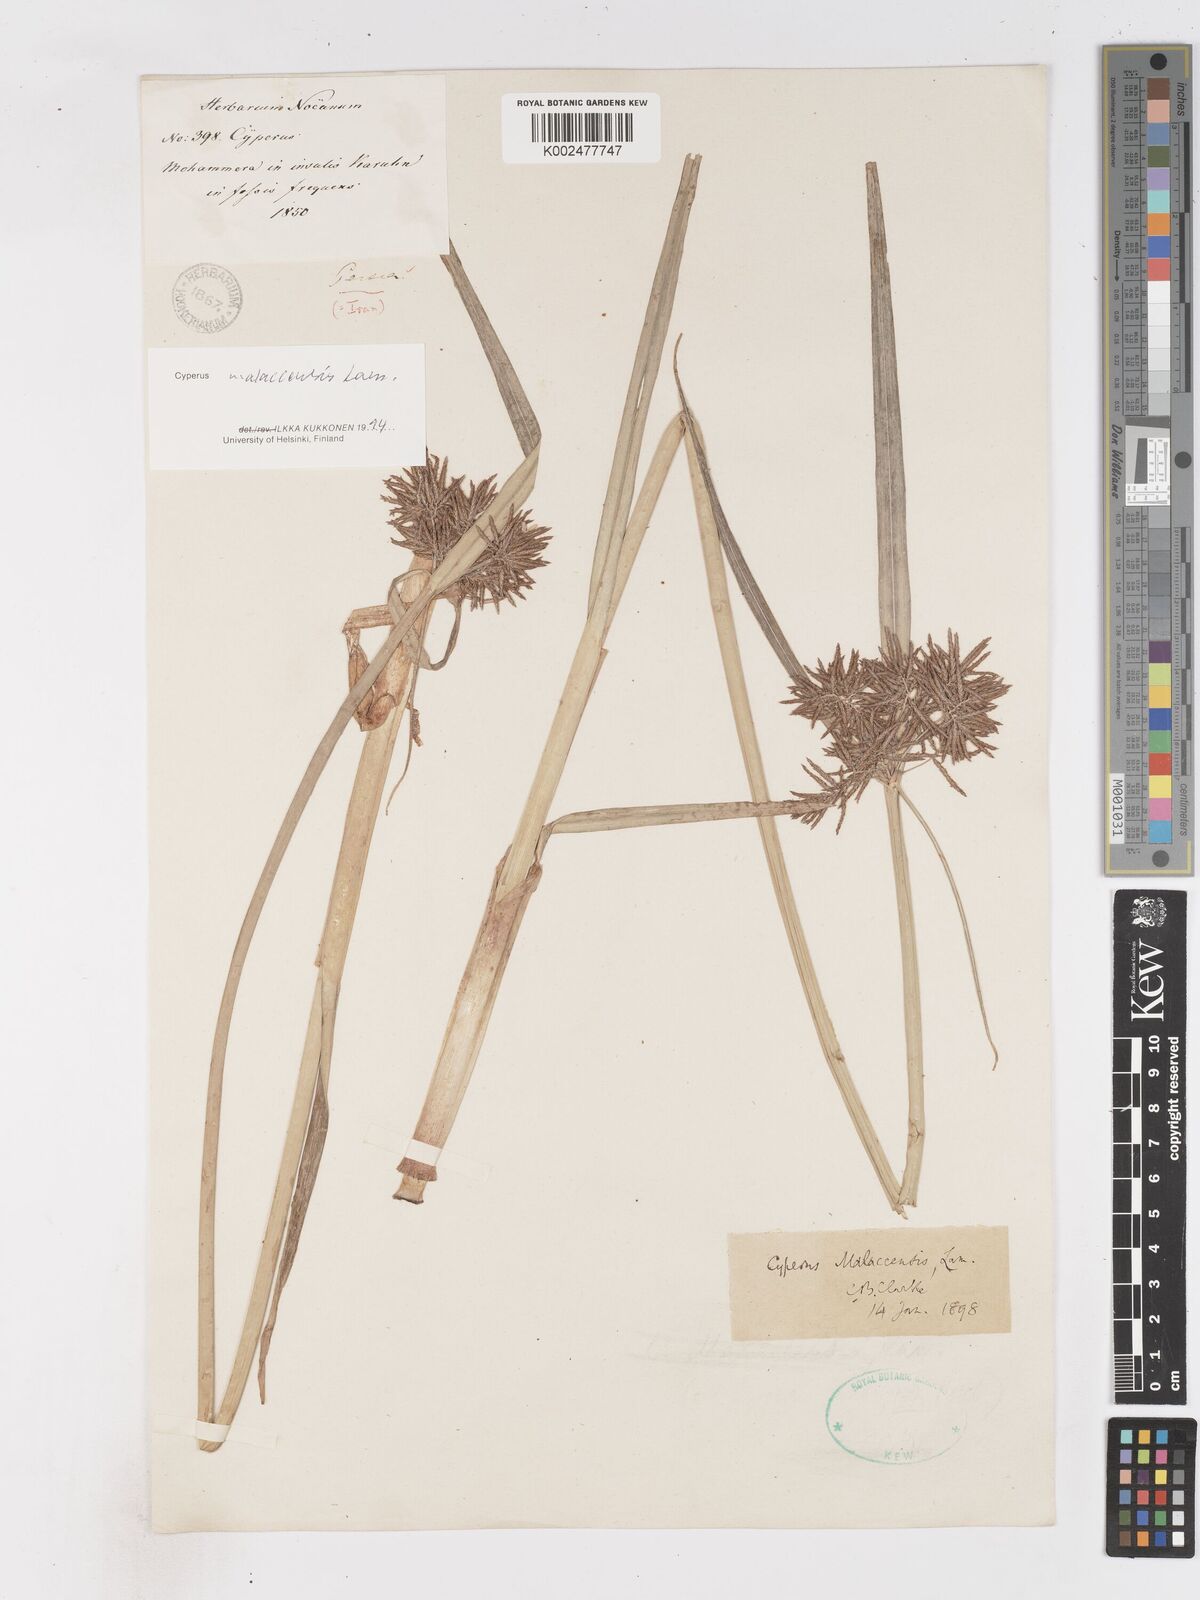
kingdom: Plantae
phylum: Tracheophyta
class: Liliopsida
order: Poales
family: Cyperaceae
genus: Cyperus
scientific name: Cyperus malaccensis
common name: Shichito matgrass
